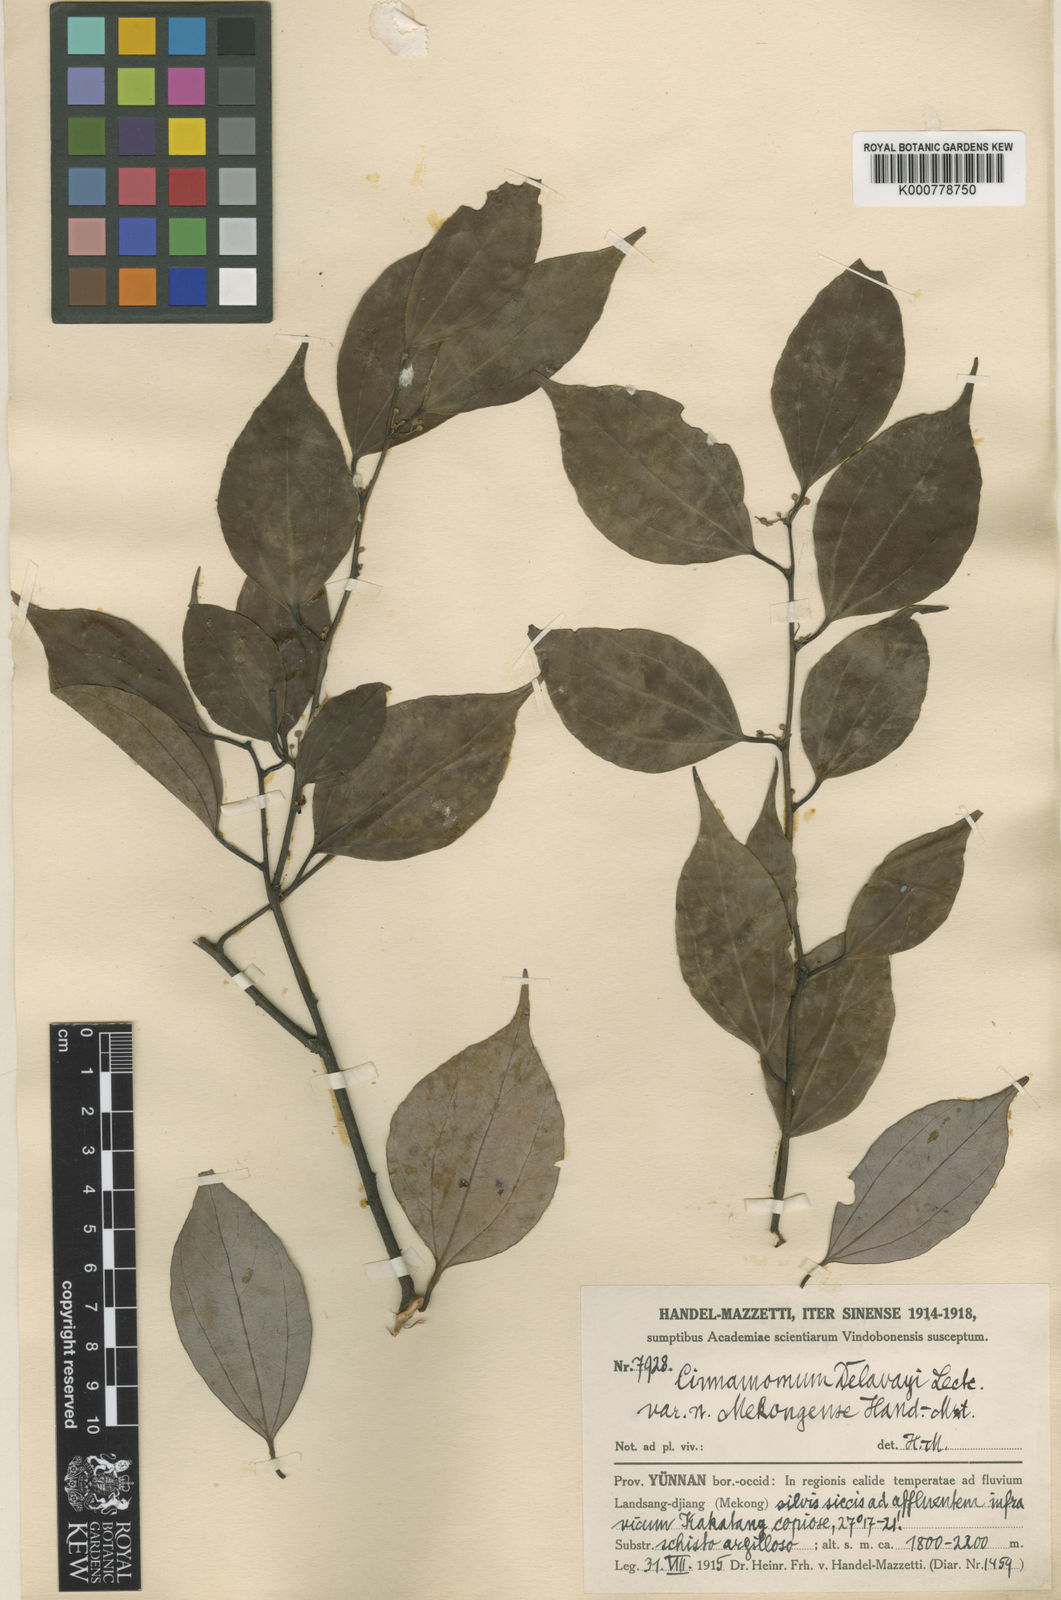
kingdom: Plantae
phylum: Tracheophyta
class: Magnoliopsida
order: Laurales
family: Lauraceae
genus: Neocinnamomum
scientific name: Neocinnamomum mekongense
